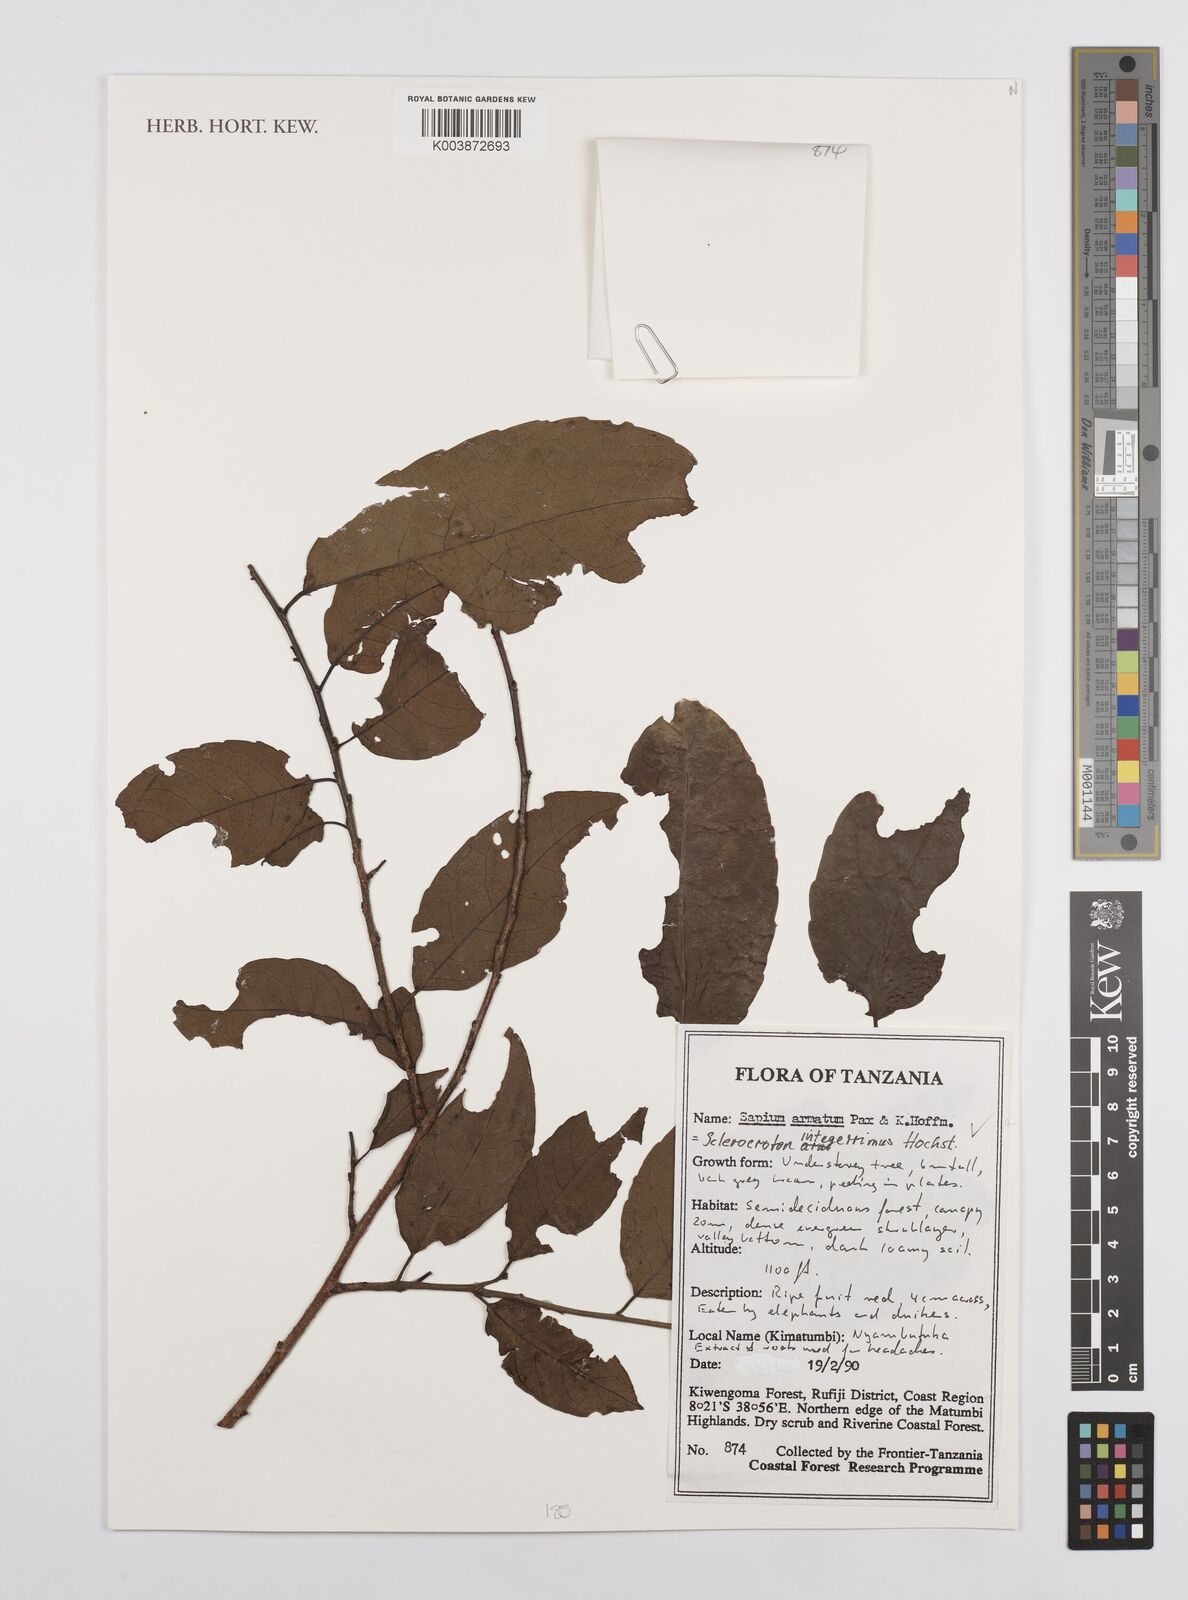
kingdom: Plantae
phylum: Tracheophyta
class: Magnoliopsida
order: Malpighiales
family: Euphorbiaceae
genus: Sclerocroton
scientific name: Sclerocroton integerrimus
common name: Duiker berry
